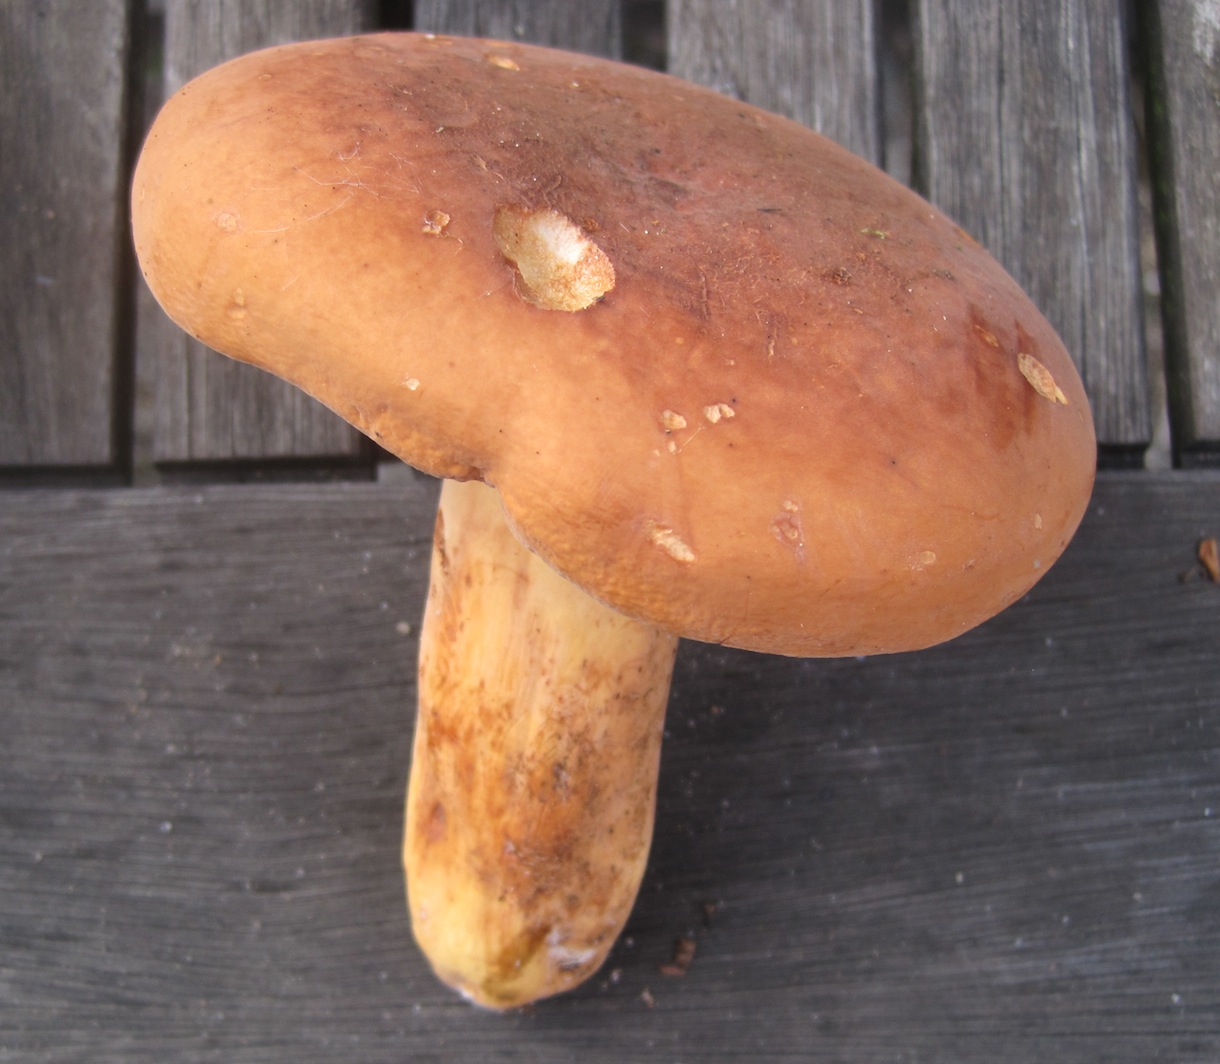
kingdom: Fungi
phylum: Basidiomycota
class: Agaricomycetes
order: Russulales
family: Russulaceae
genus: Lactifluus
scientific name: Lactifluus volemus
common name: spiselig mælkehat
